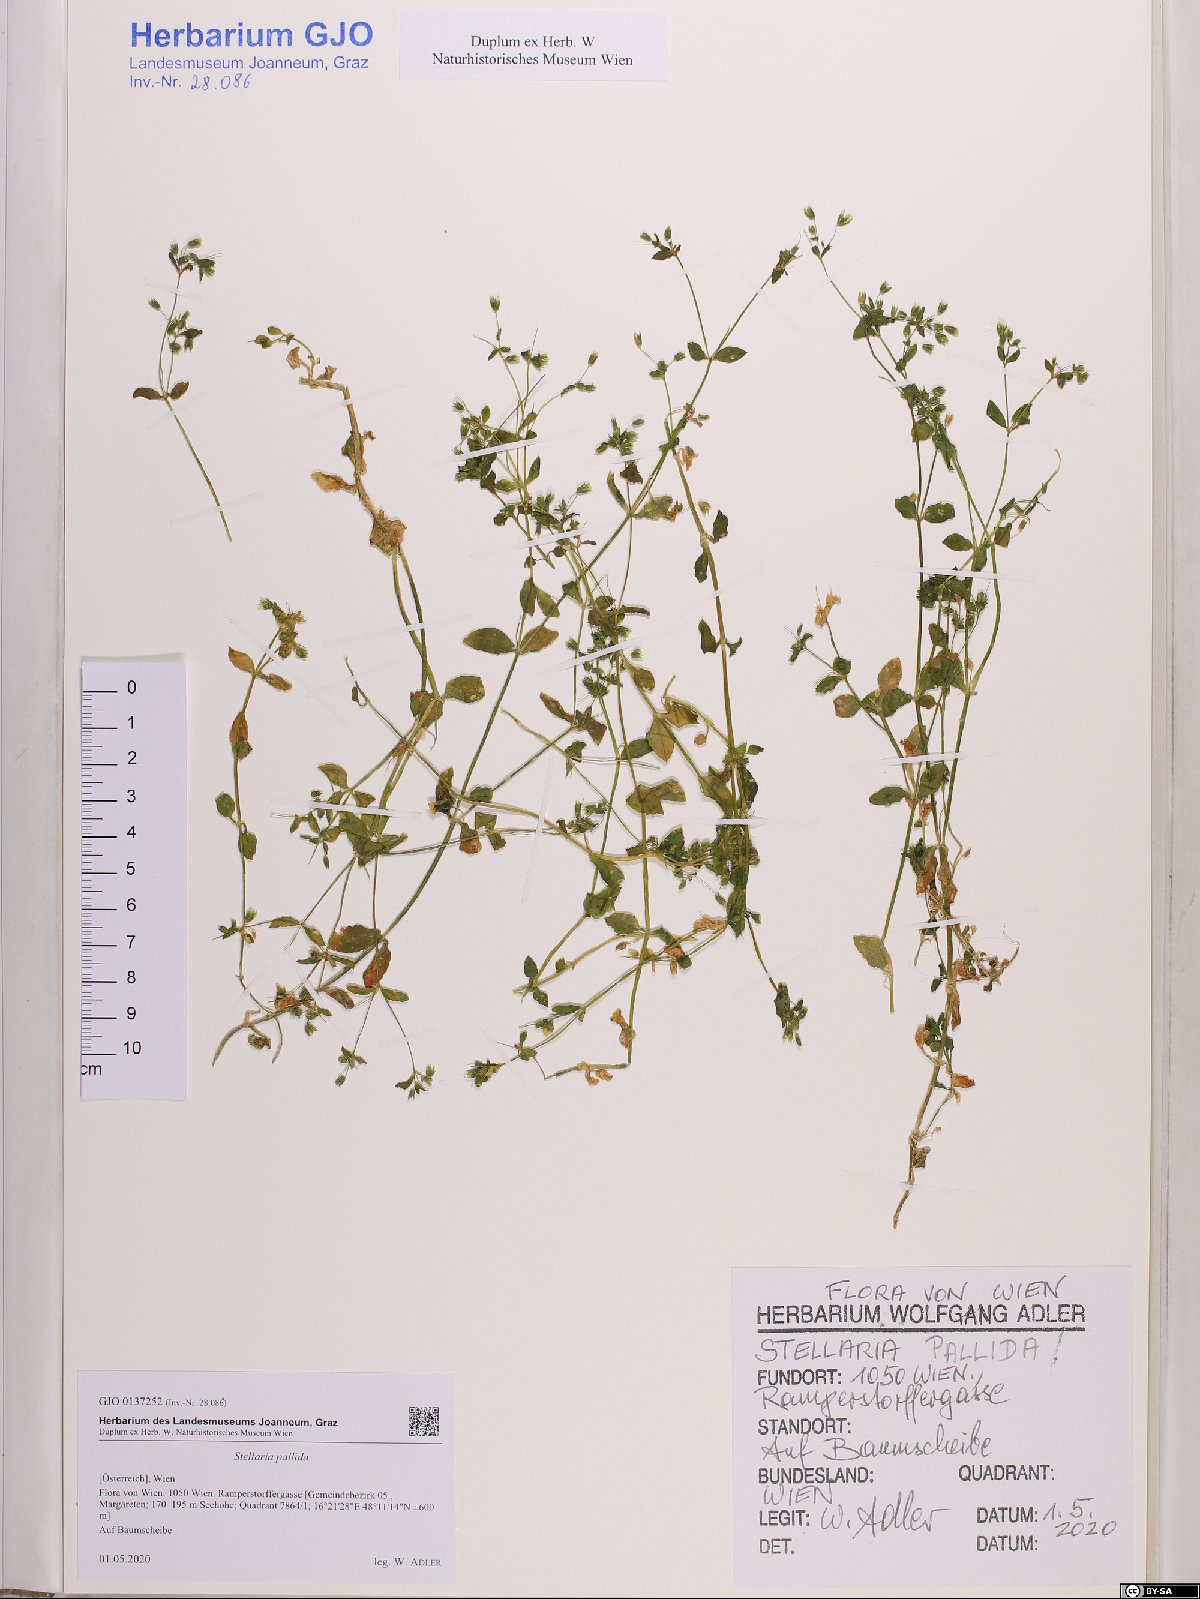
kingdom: Plantae
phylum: Tracheophyta
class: Magnoliopsida
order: Caryophyllales
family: Caryophyllaceae
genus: Stellaria
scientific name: Stellaria apetala
